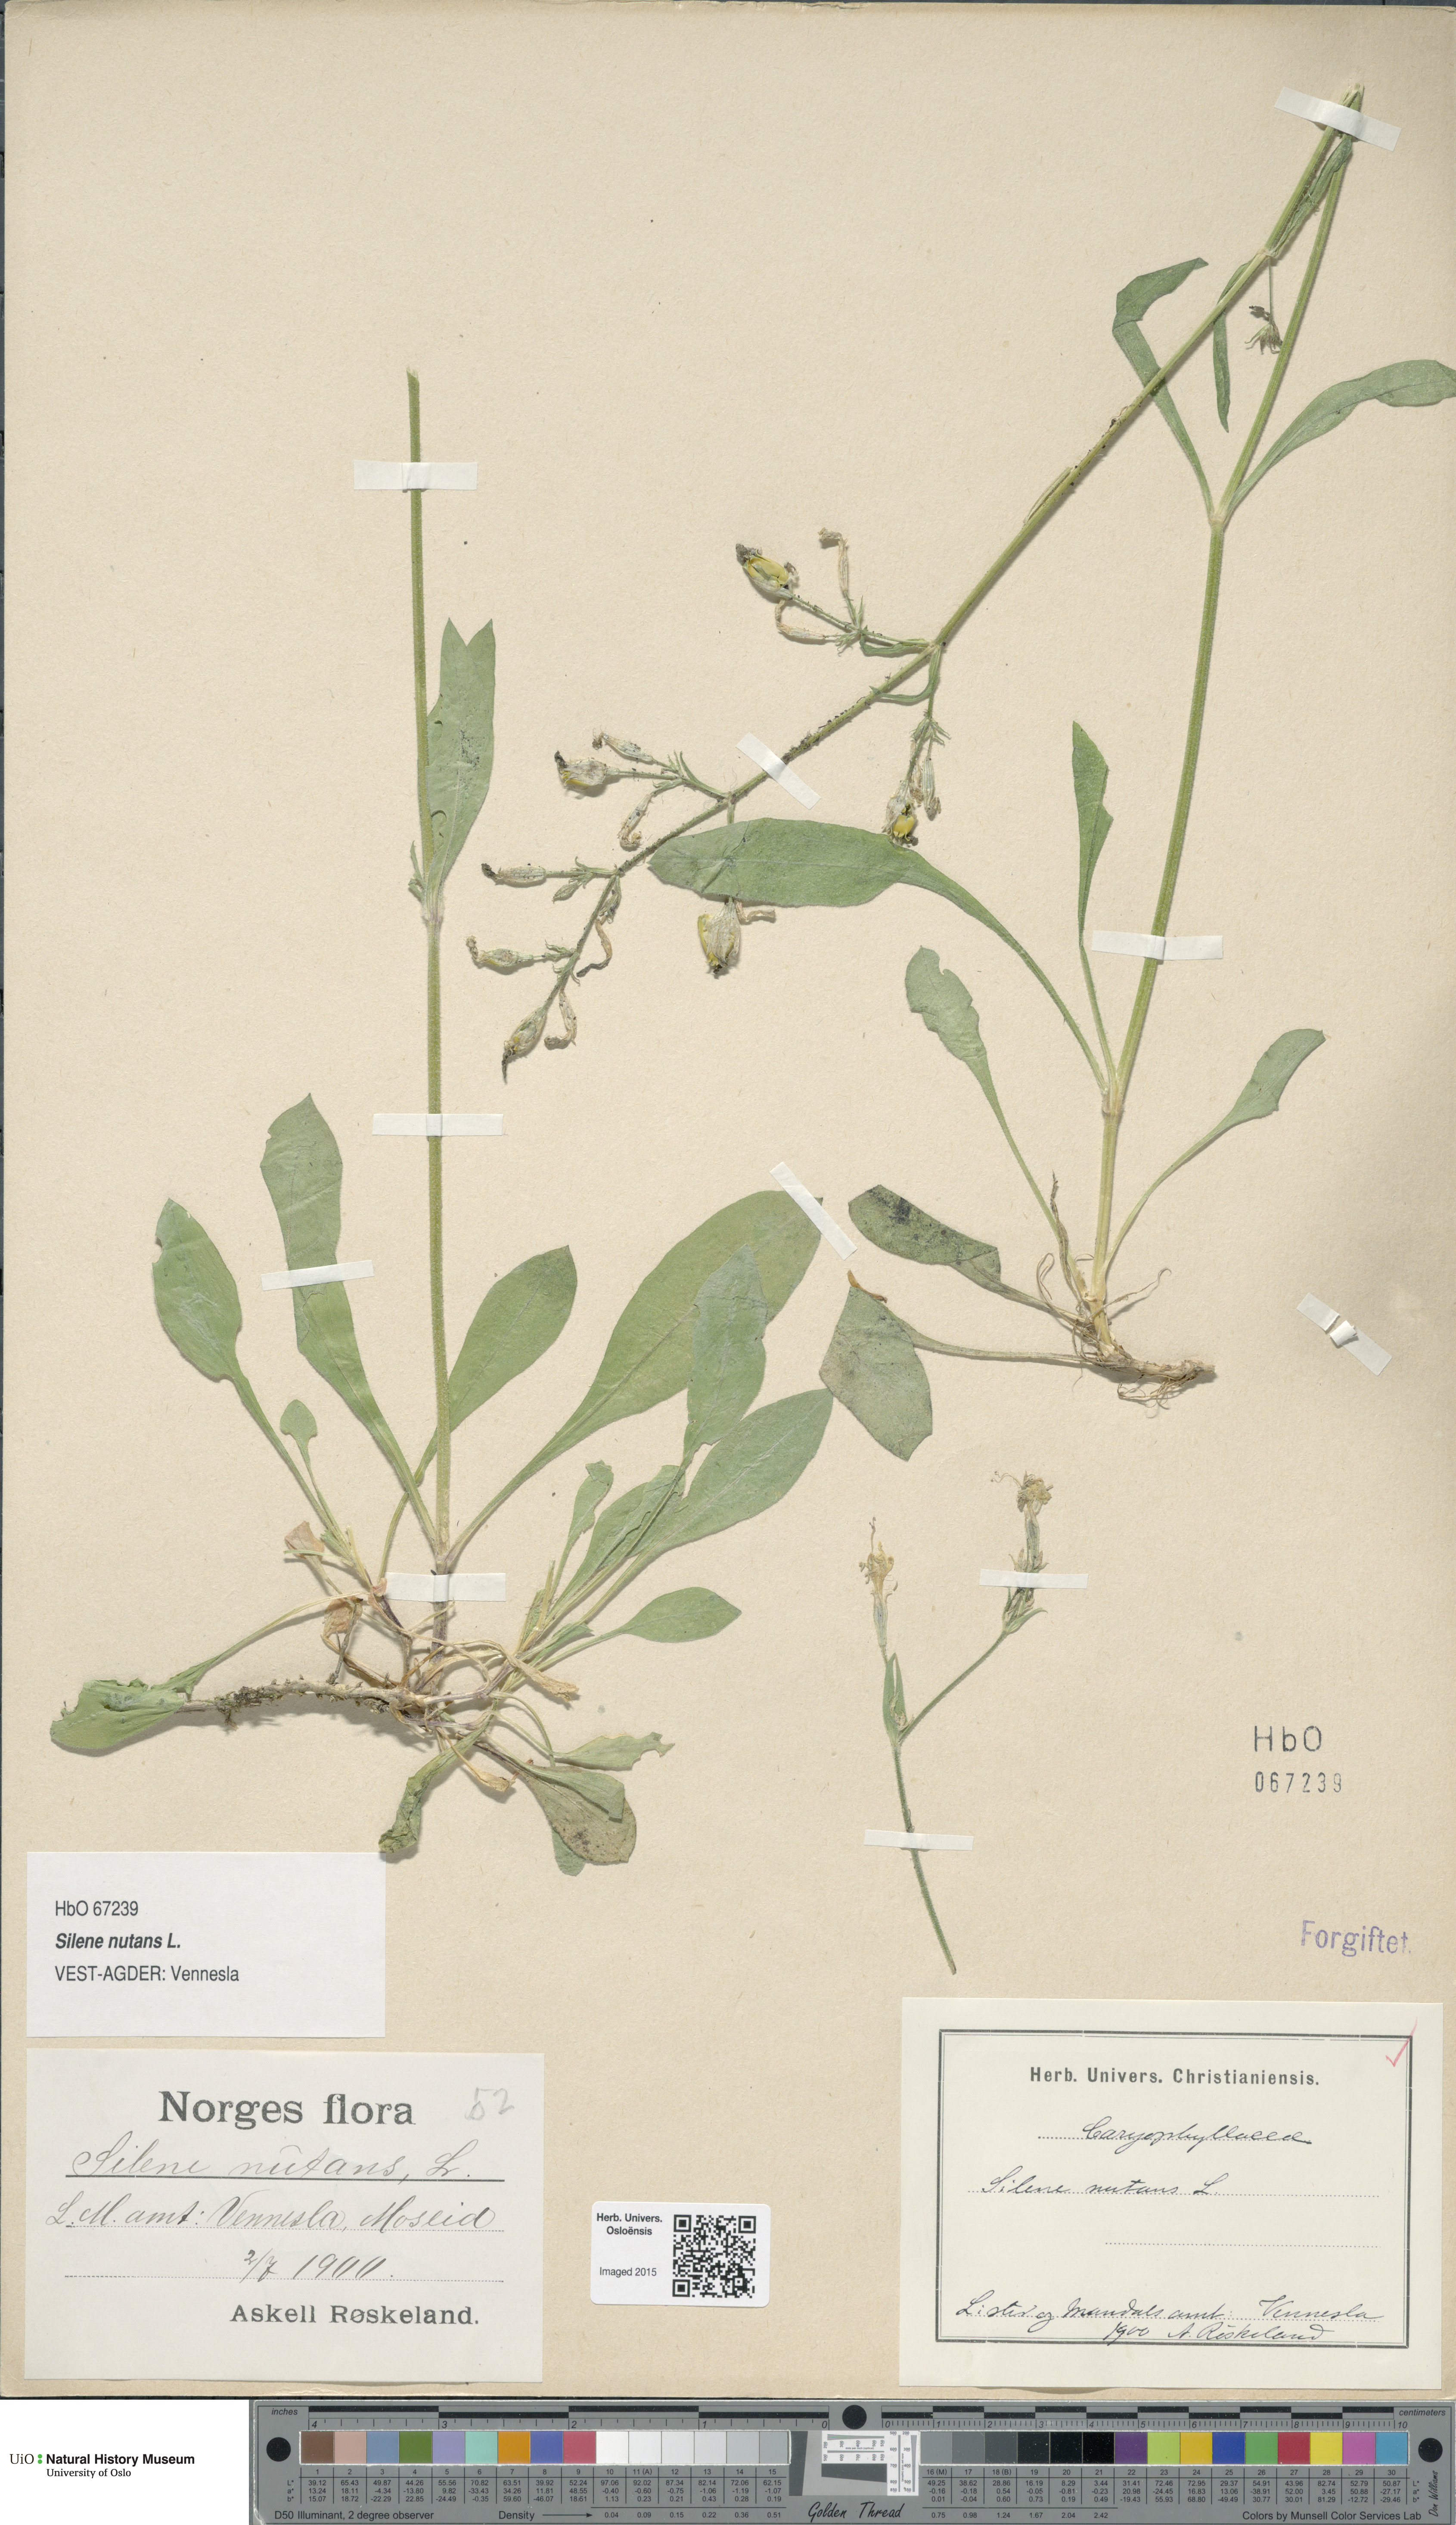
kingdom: Plantae
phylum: Tracheophyta
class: Magnoliopsida
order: Caryophyllales
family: Caryophyllaceae
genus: Silene
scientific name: Silene nutans
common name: Nottingham catchfly
